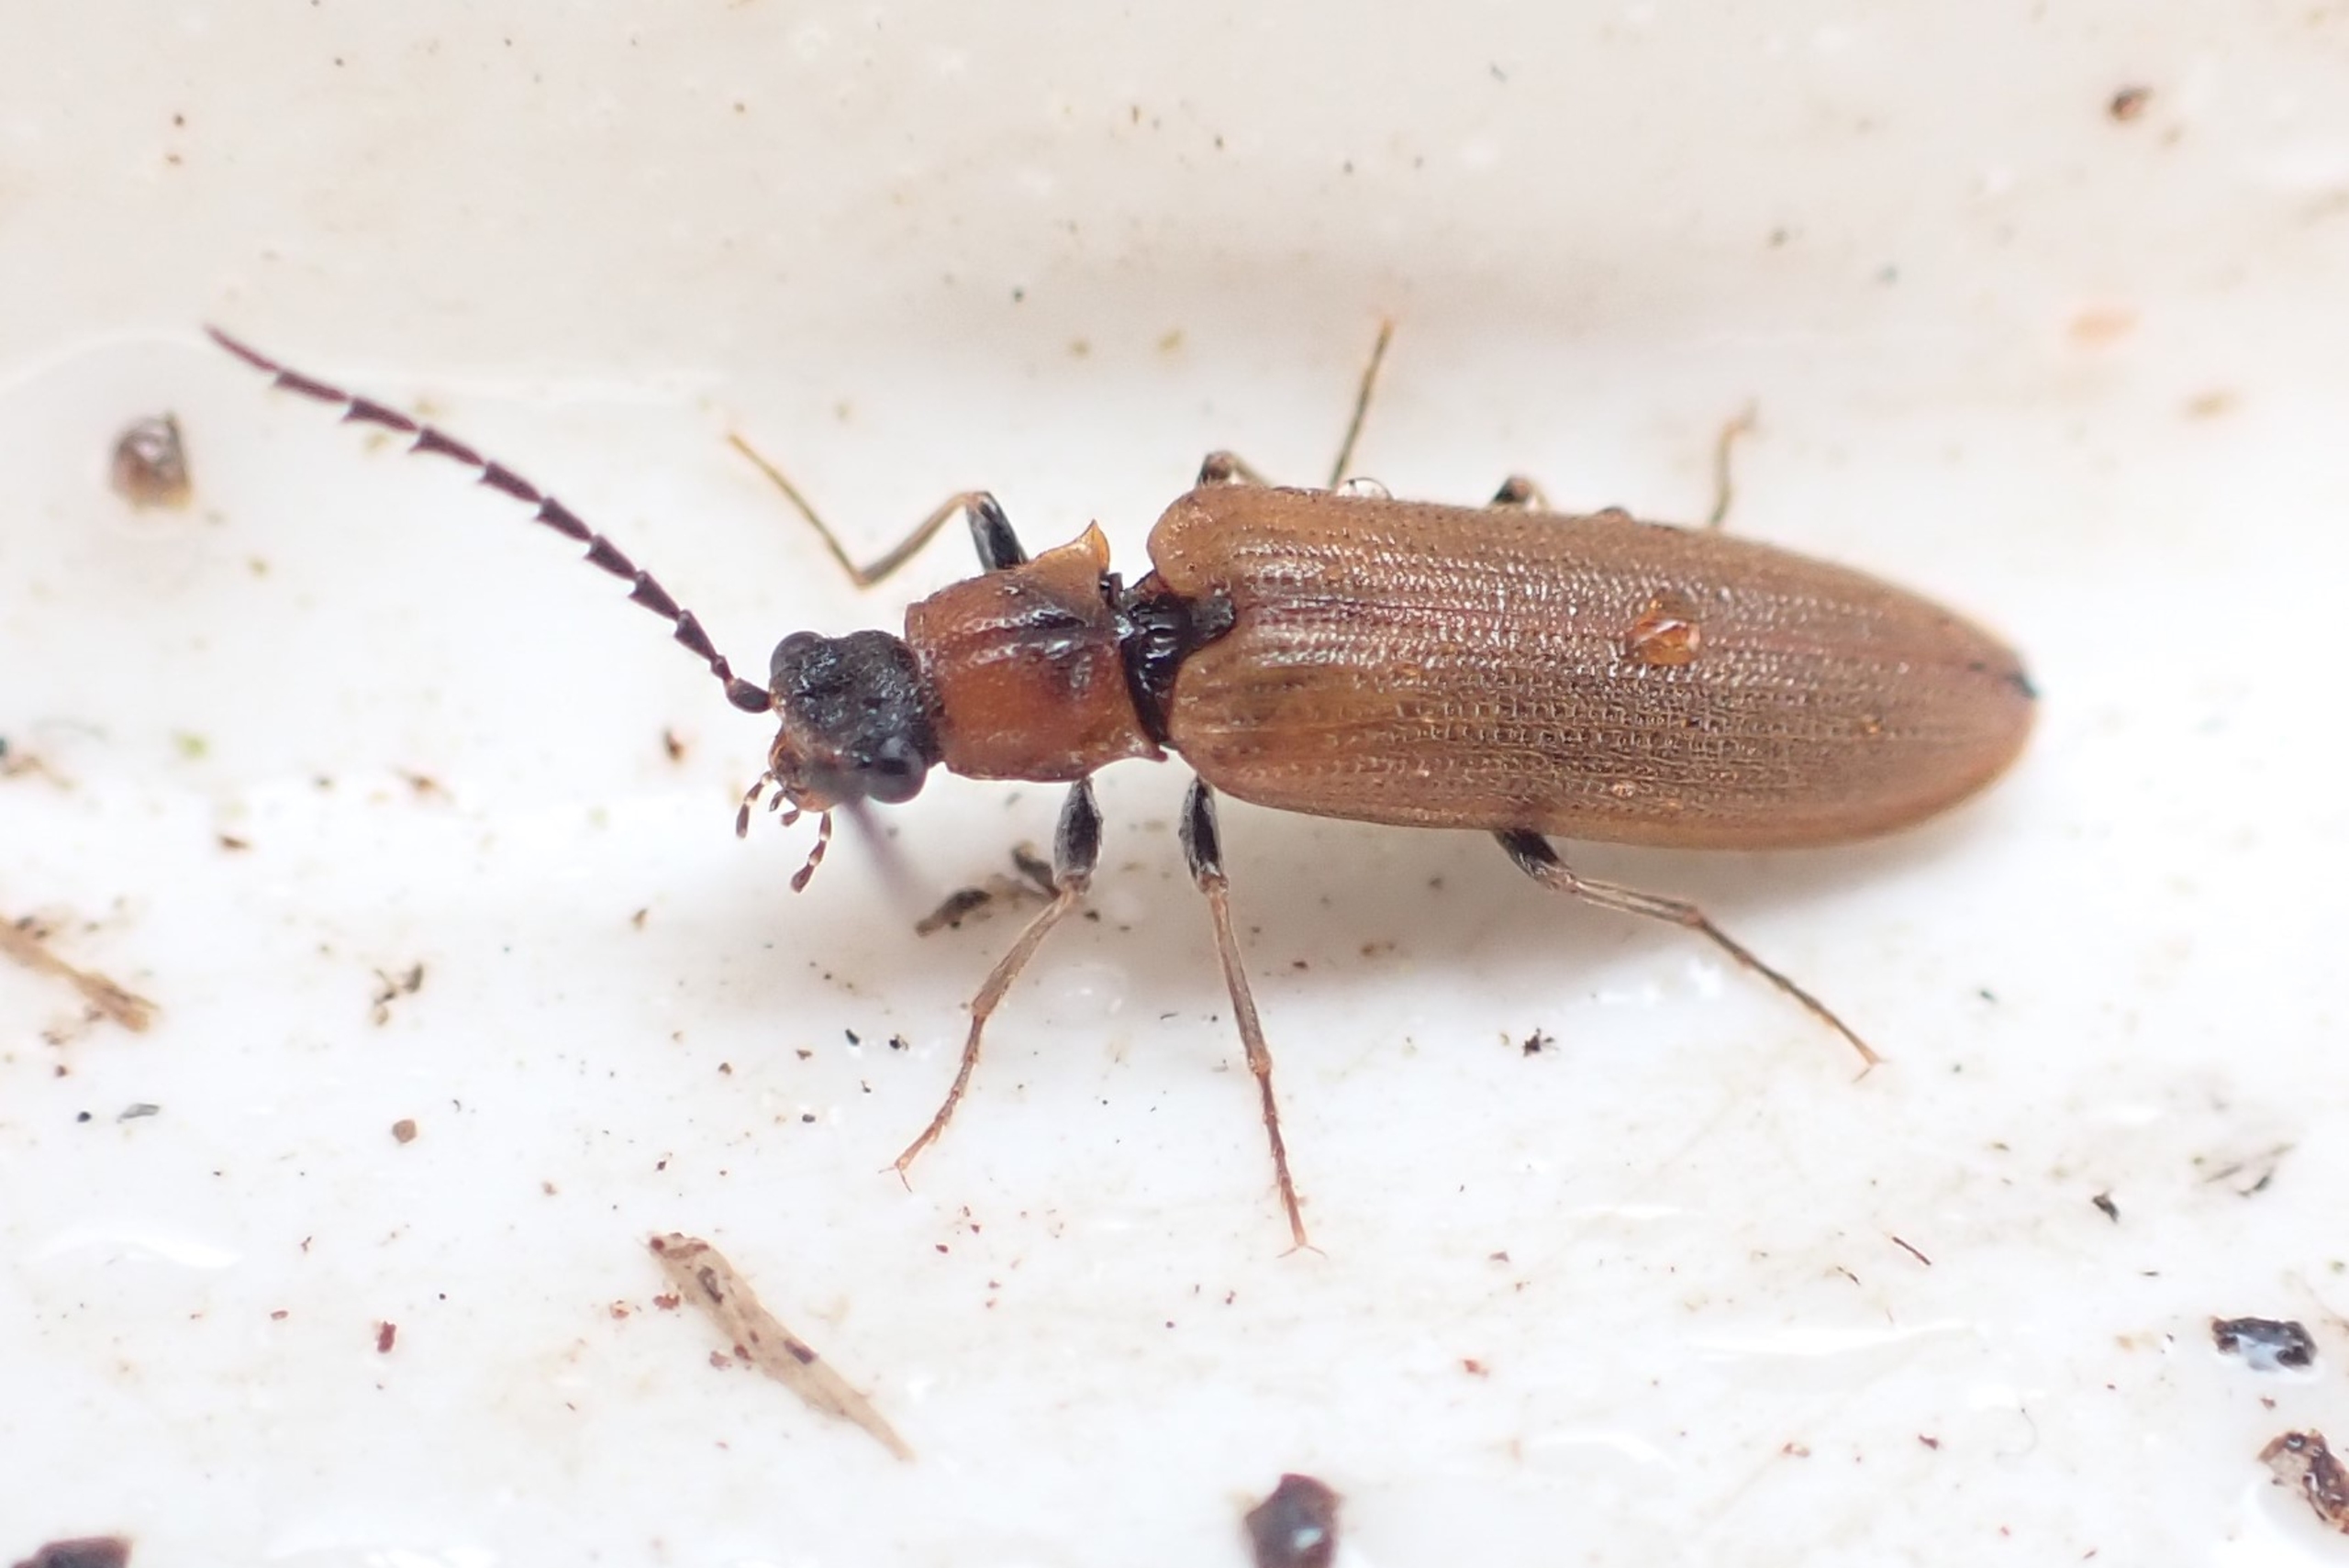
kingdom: Animalia
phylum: Arthropoda
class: Insecta
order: Coleoptera
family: Elateridae
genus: Denticollis
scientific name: Denticollis linearis
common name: Almindelig sirsmælder
